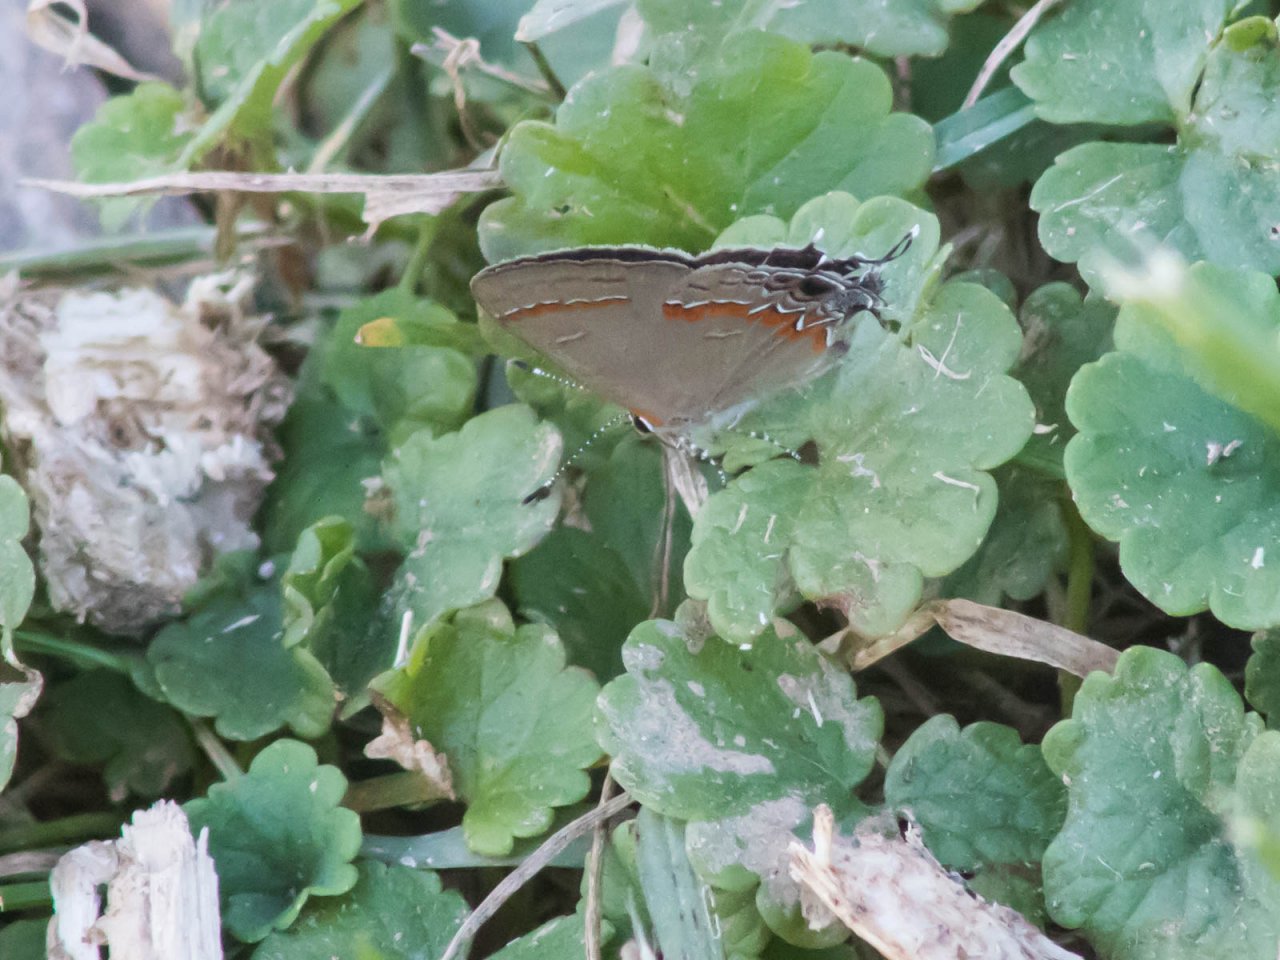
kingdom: Animalia
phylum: Arthropoda
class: Insecta
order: Lepidoptera
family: Lycaenidae
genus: Calycopis
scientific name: Calycopis cecrops
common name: Red-banded Hairstreak
